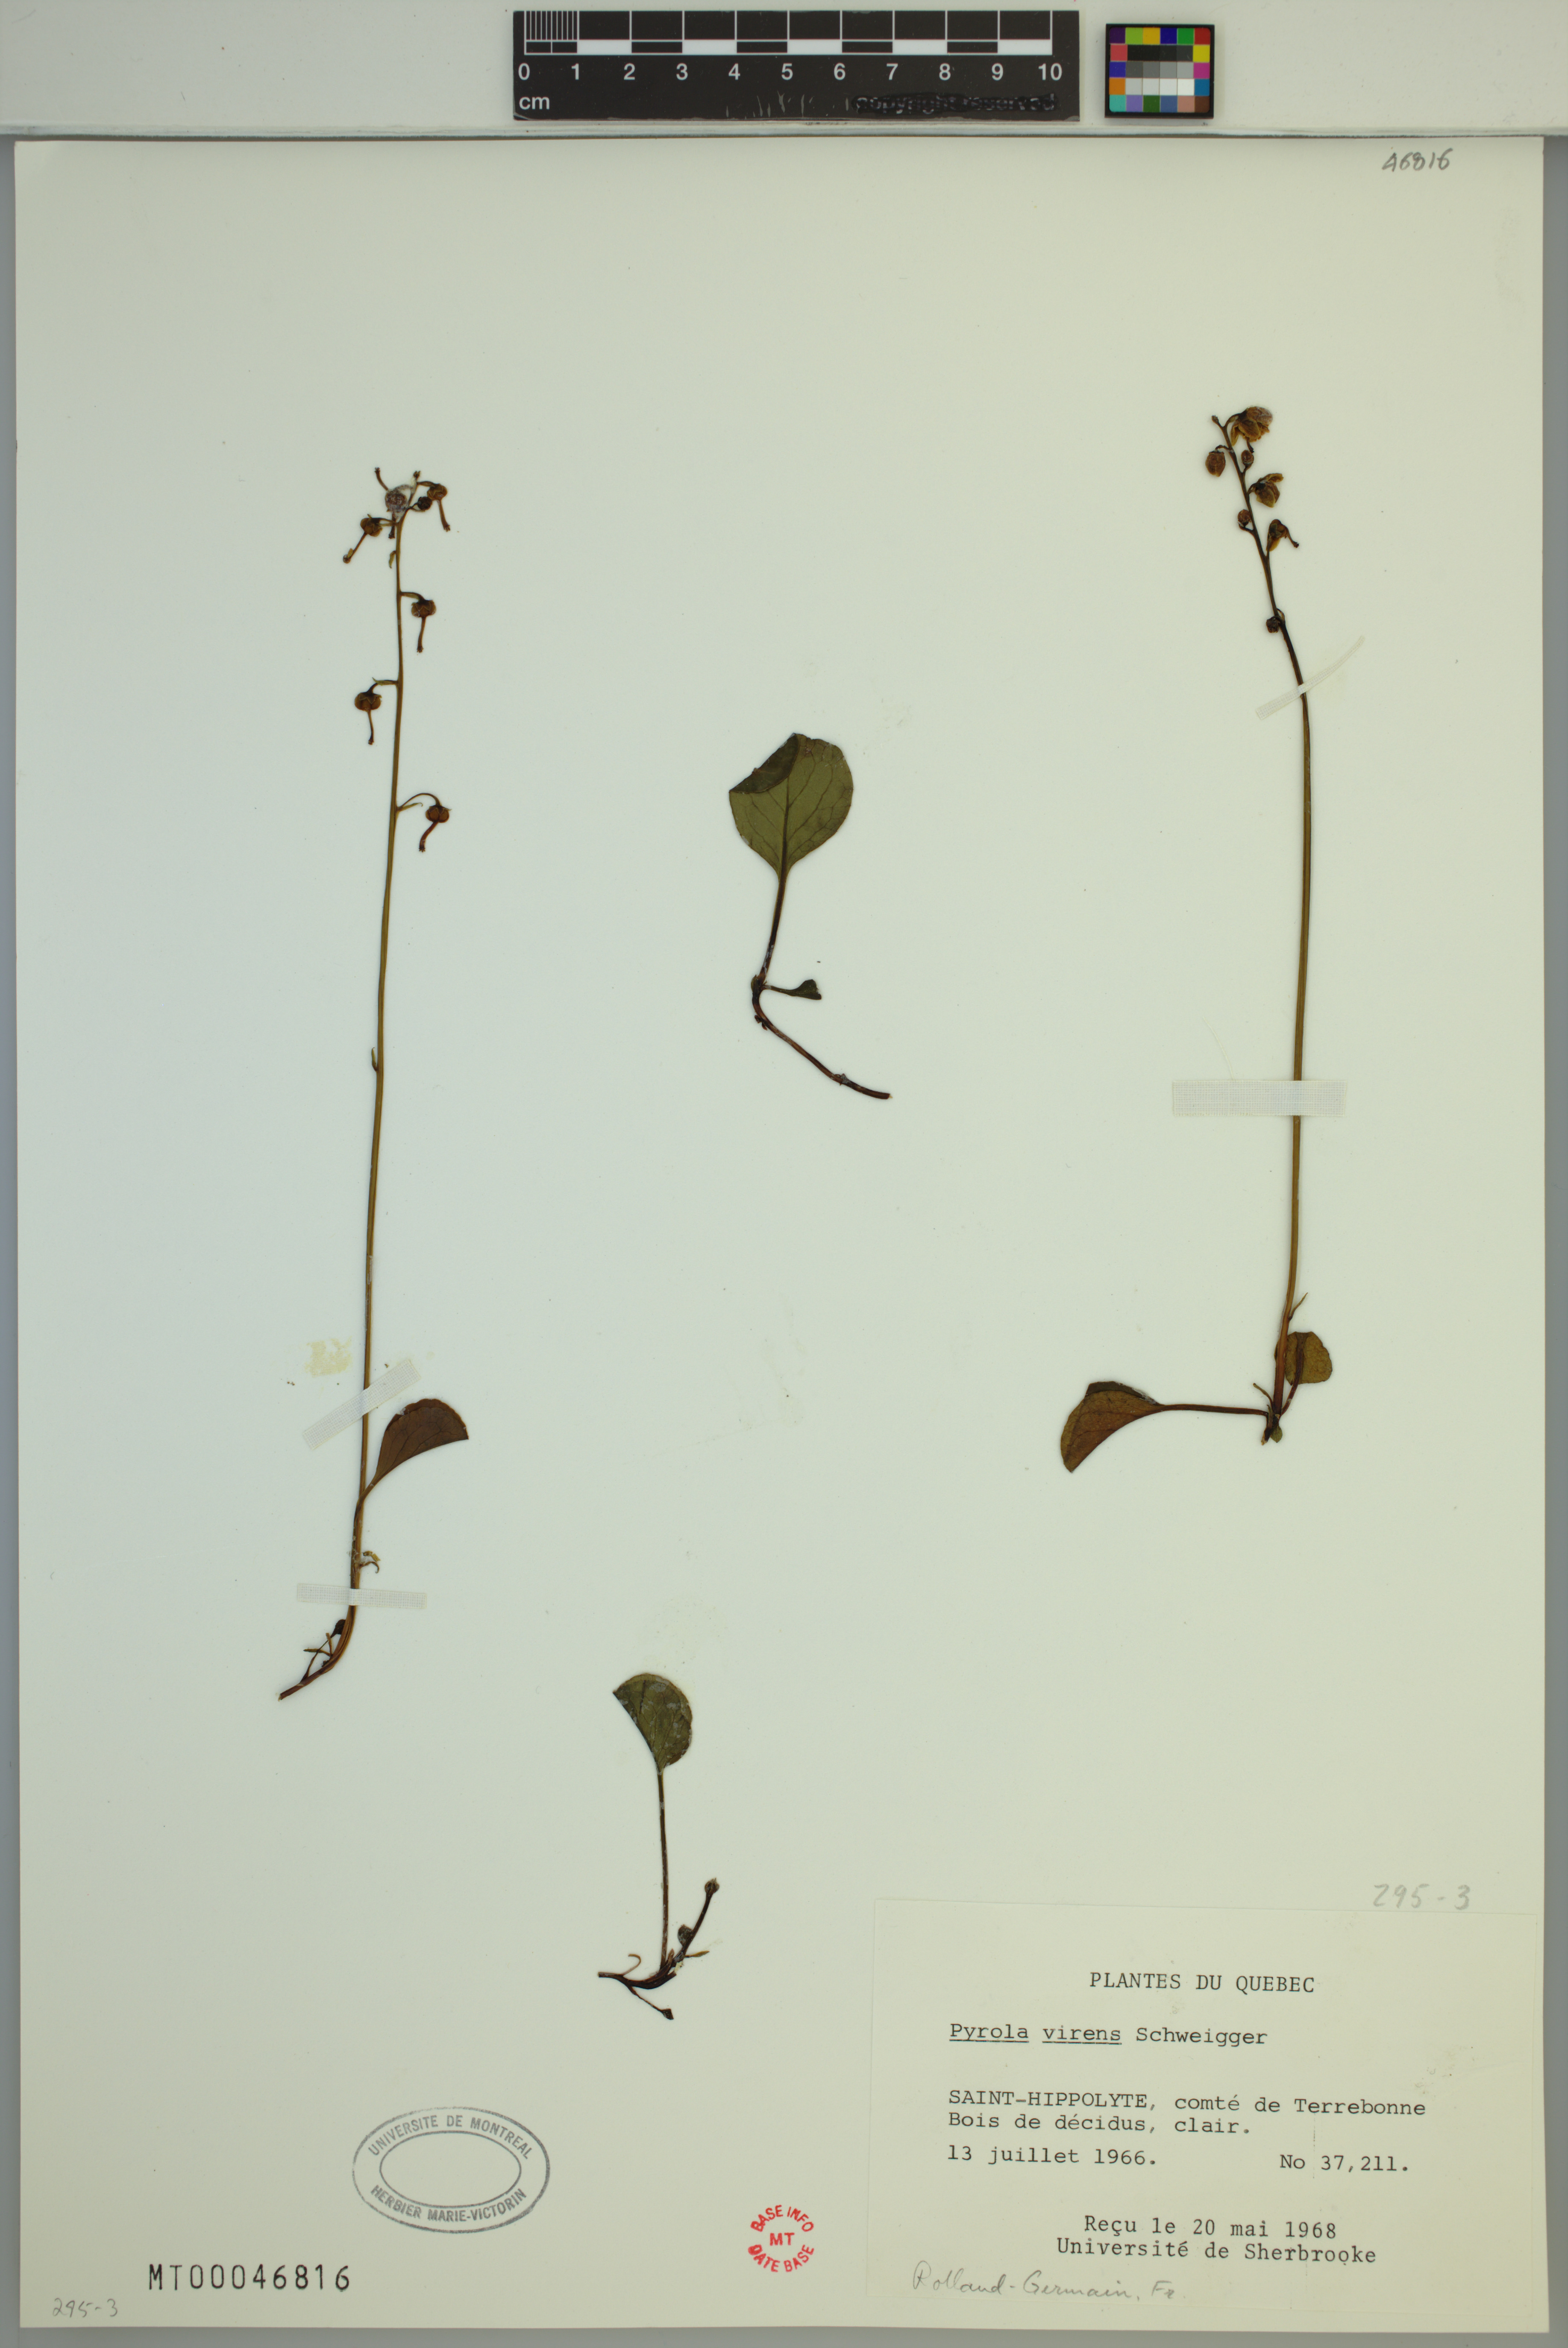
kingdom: Plantae
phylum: Tracheophyta
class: Magnoliopsida
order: Ericales
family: Ericaceae
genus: Pyrola
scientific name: Pyrola chlorantha
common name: Green wintergreen
